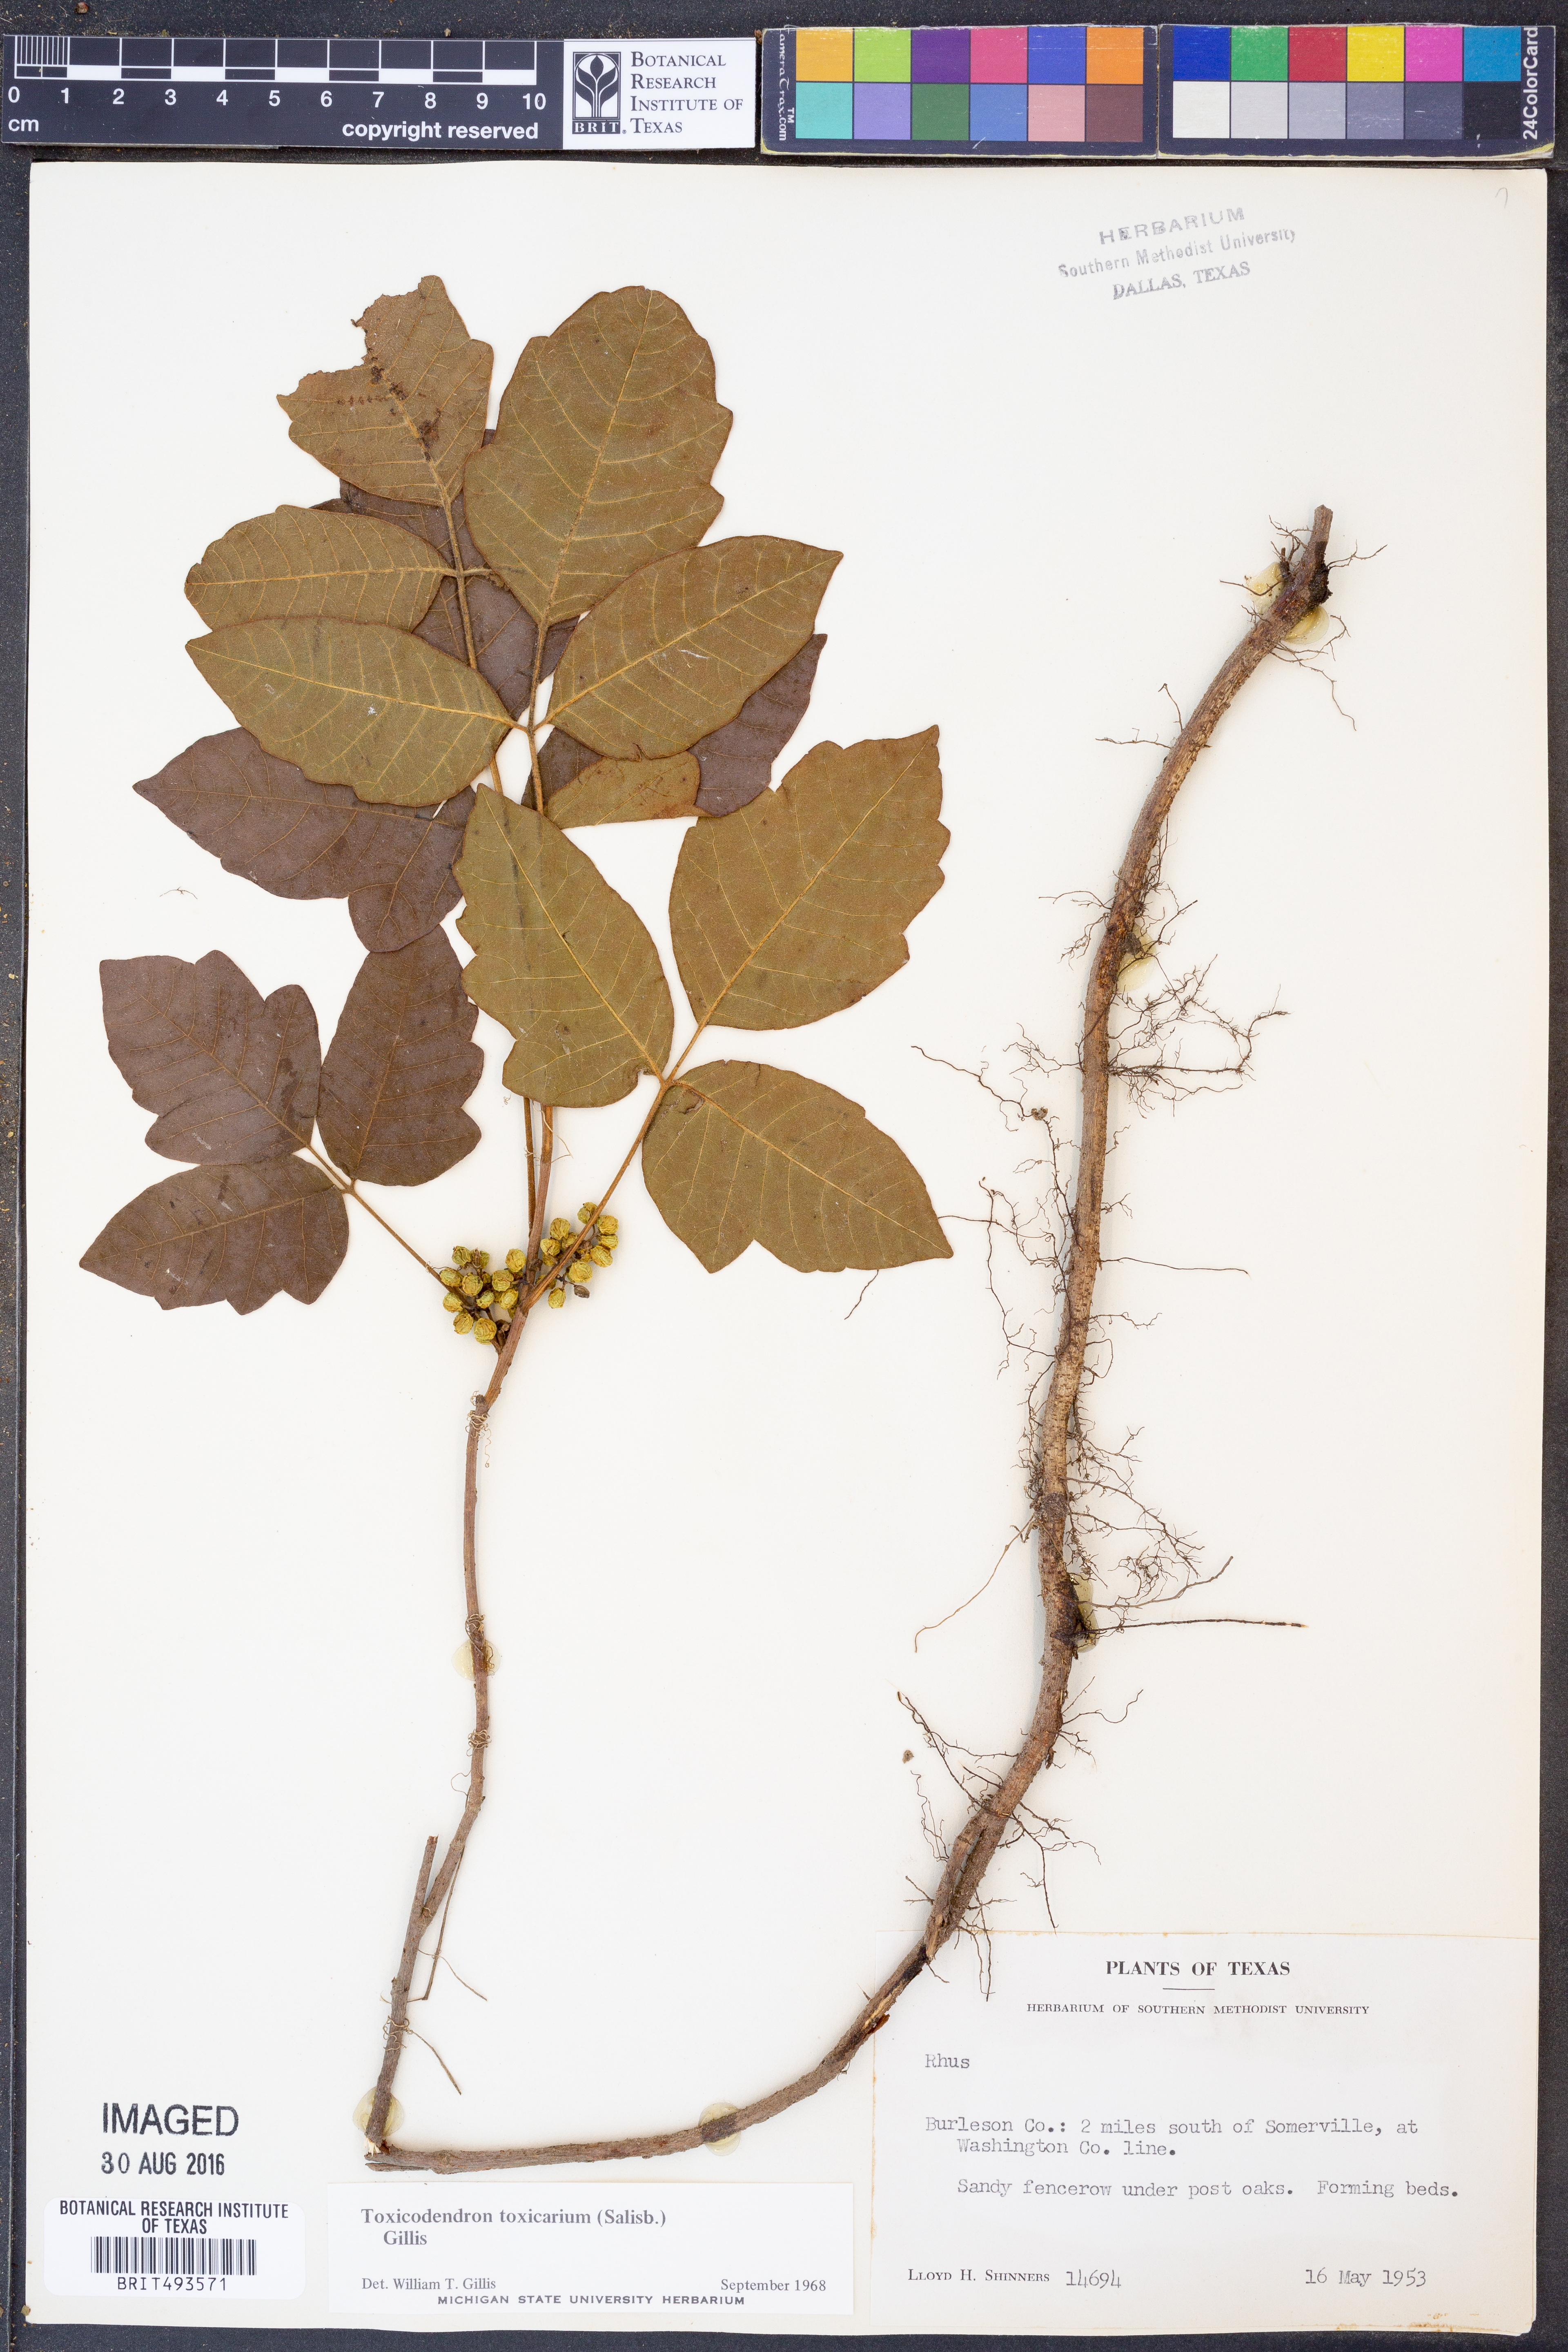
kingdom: Plantae
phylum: Tracheophyta
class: Magnoliopsida
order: Sapindales
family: Anacardiaceae
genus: Toxicodendron
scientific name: Toxicodendron pubescens
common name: Eastern poison-oak
